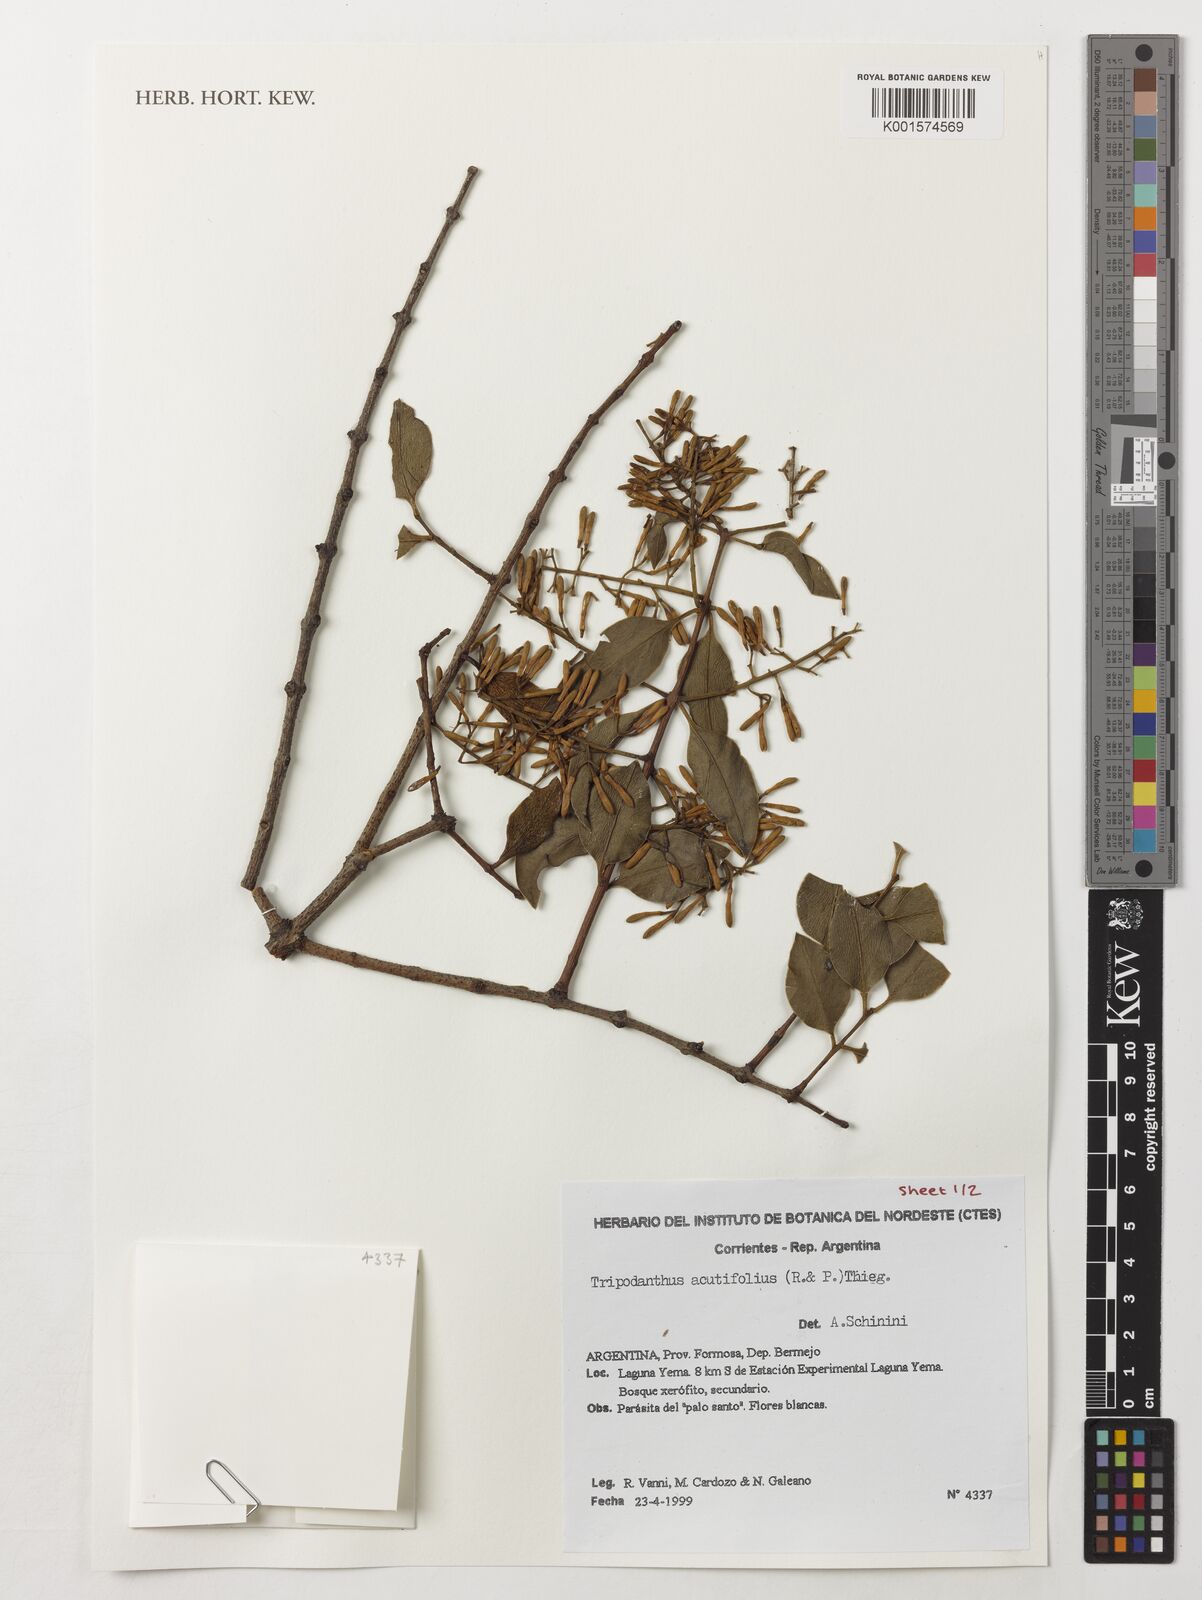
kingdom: Plantae
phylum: Tracheophyta
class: Magnoliopsida
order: Santalales
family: Loranthaceae
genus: Tripodanthus
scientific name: Tripodanthus acutifolius
